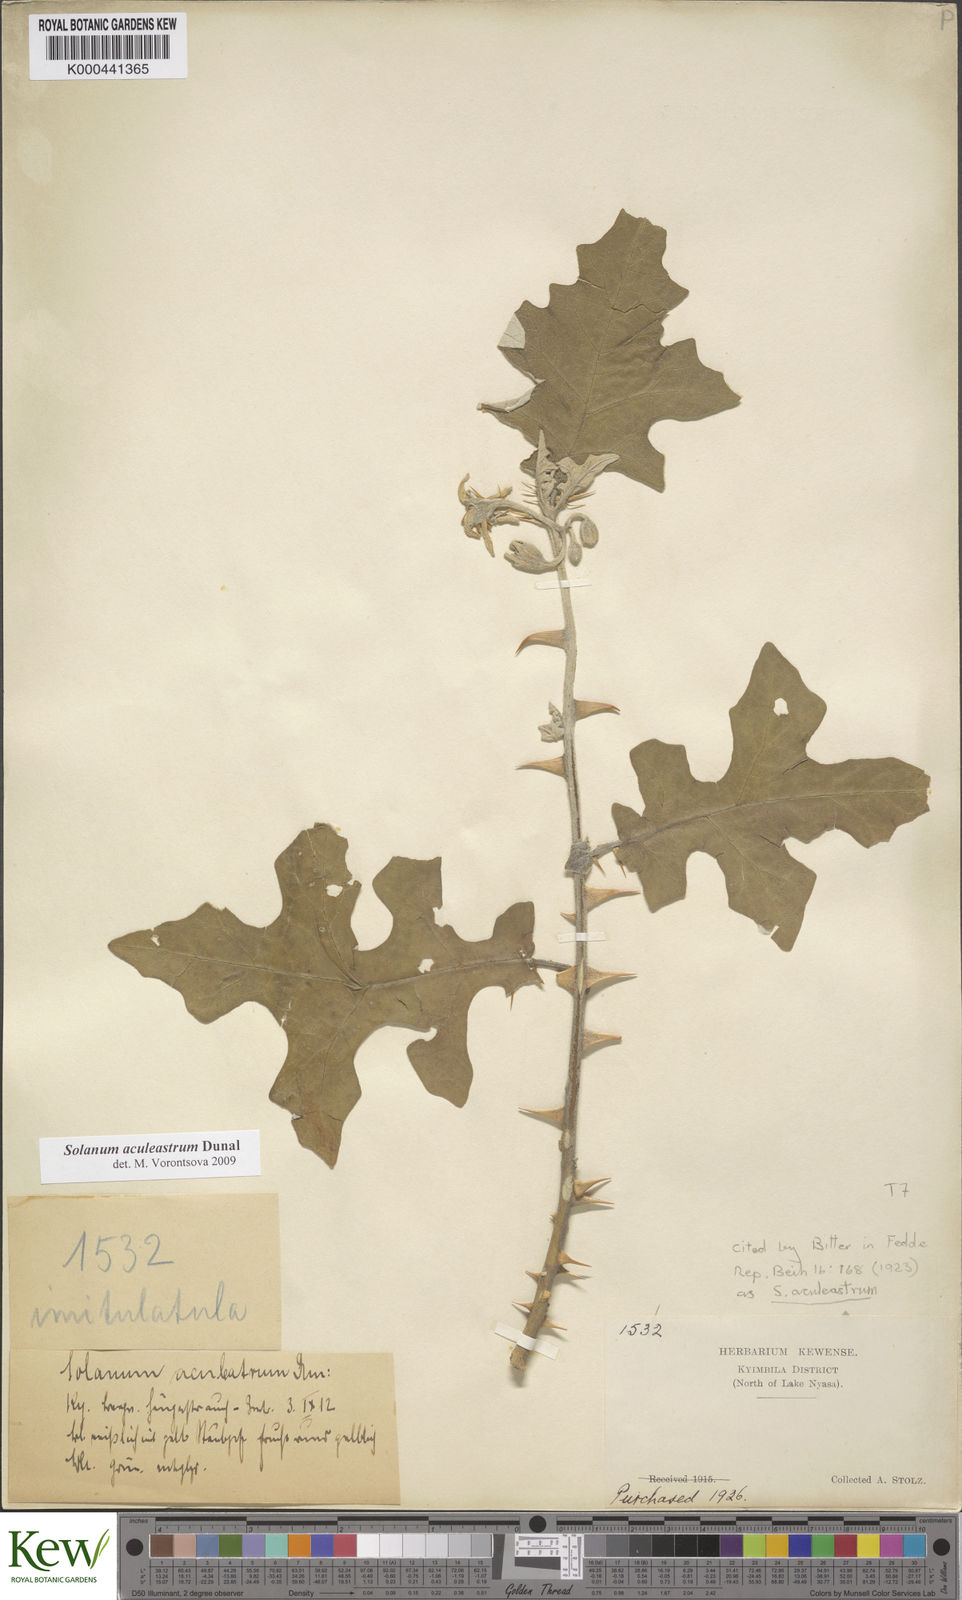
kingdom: Plantae
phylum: Tracheophyta
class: Magnoliopsida
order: Solanales
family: Solanaceae
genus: Solanum
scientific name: Solanum aculeastrum
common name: Goat bitter-apple
